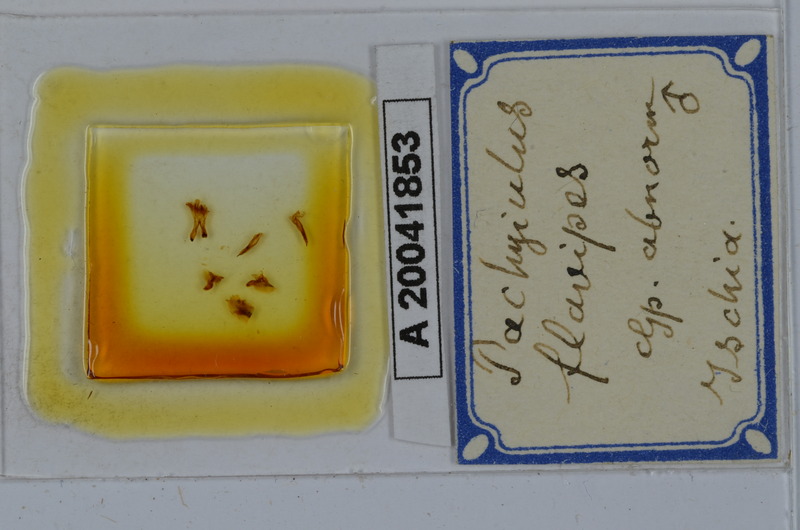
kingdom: Animalia
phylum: Arthropoda
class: Diplopoda
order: Julida
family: Julidae
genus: Pachyiulus
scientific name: Pachyiulus flavipes
